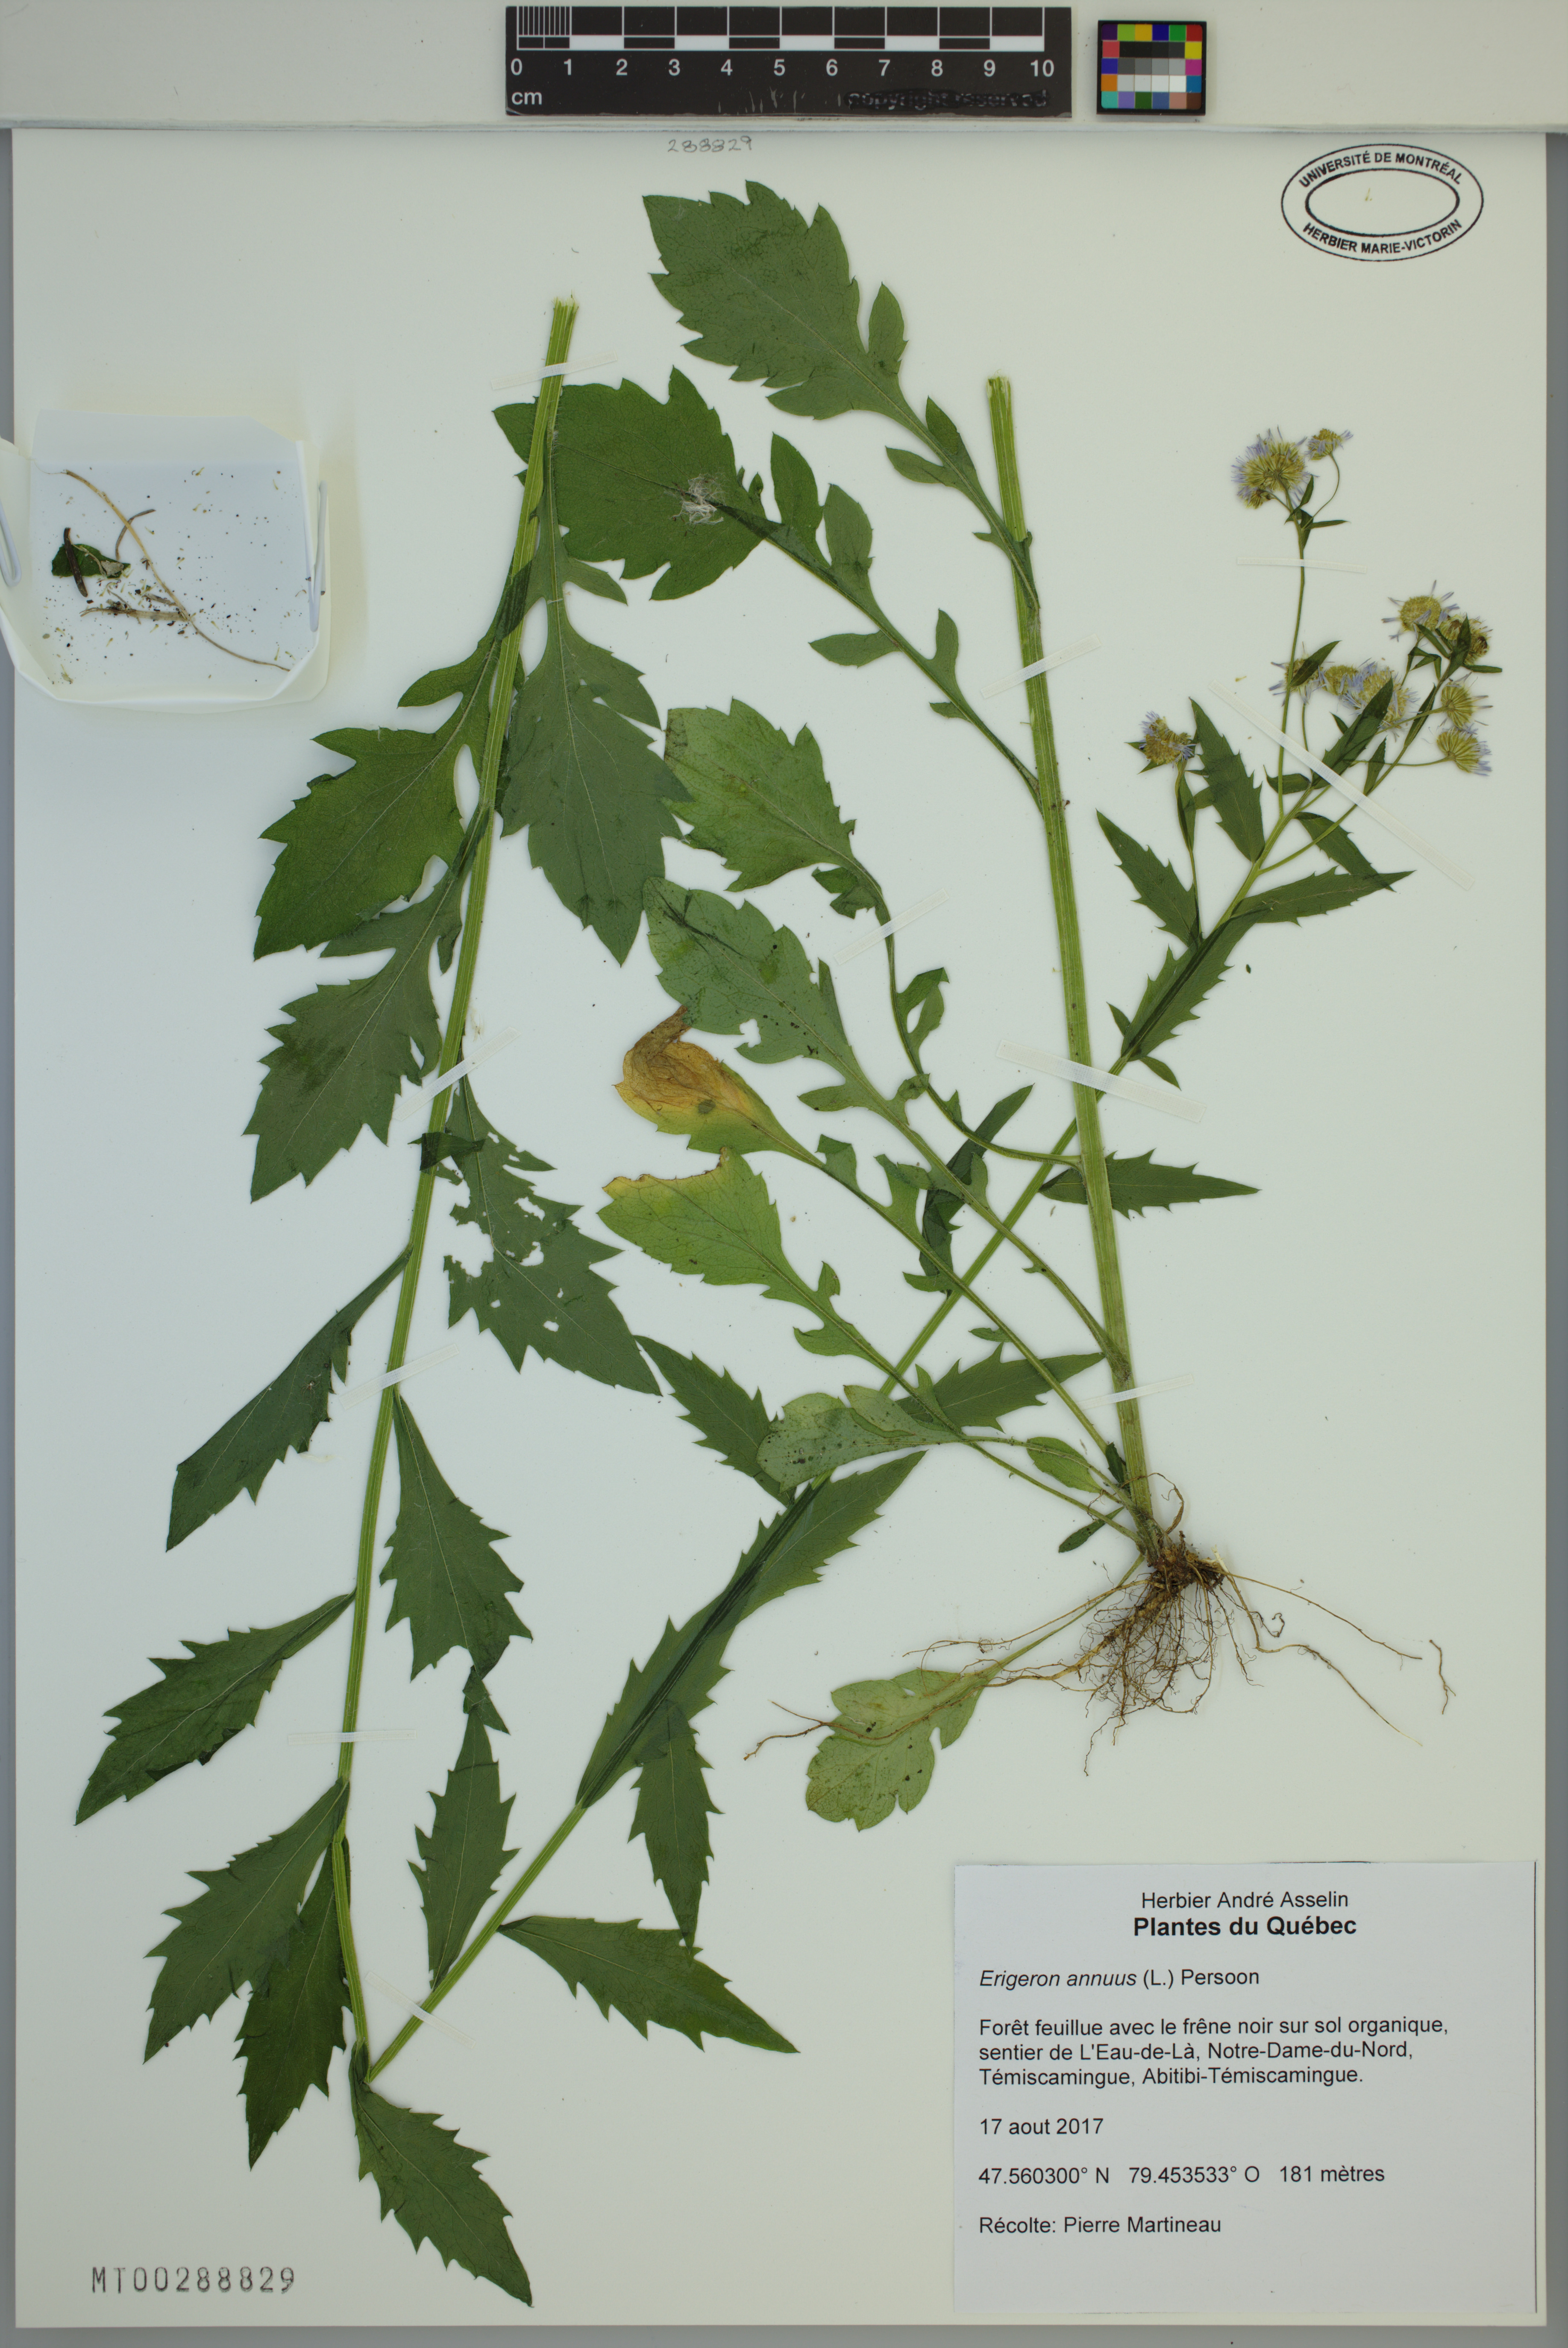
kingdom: Plantae
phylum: Tracheophyta
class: Magnoliopsida
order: Asterales
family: Asteraceae
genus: Erigeron
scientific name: Erigeron annuus
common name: Tall fleabane
